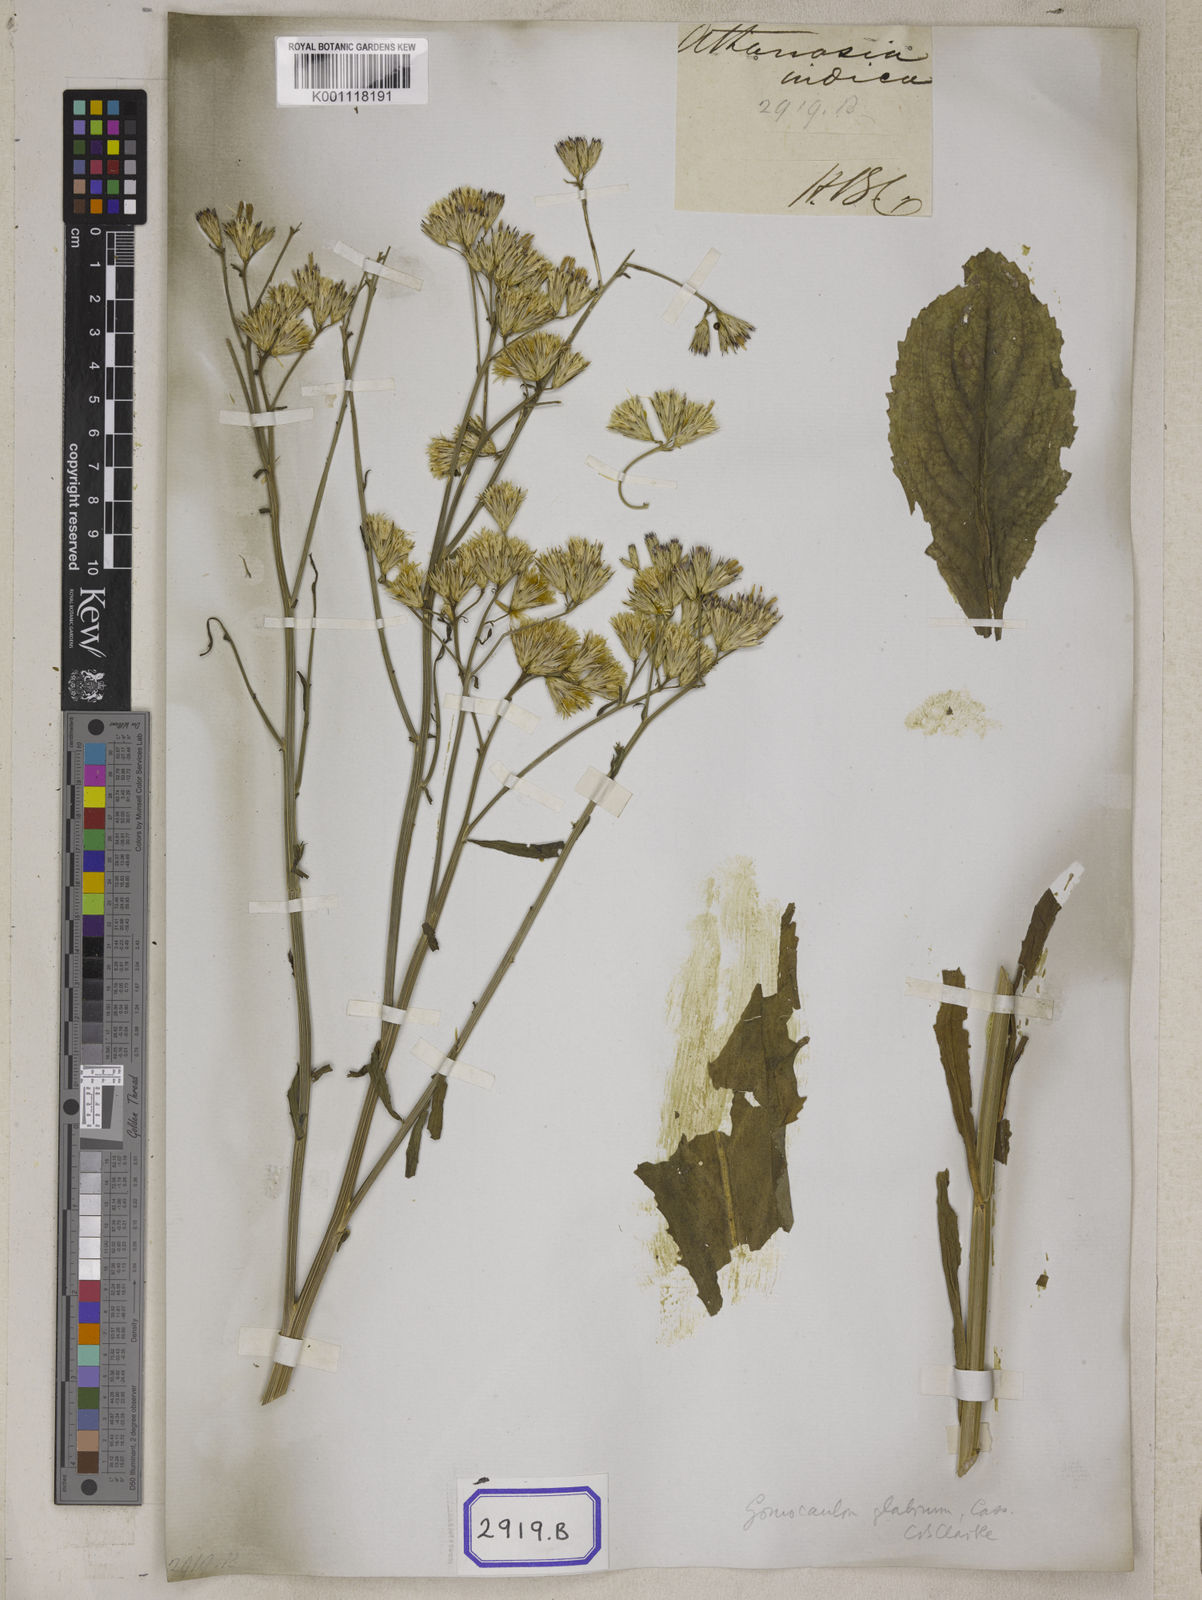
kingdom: Plantae
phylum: Tracheophyta
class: Magnoliopsida
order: Asterales
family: Asteraceae
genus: Echinops
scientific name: Echinops echinatus
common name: Indian globe thistle
